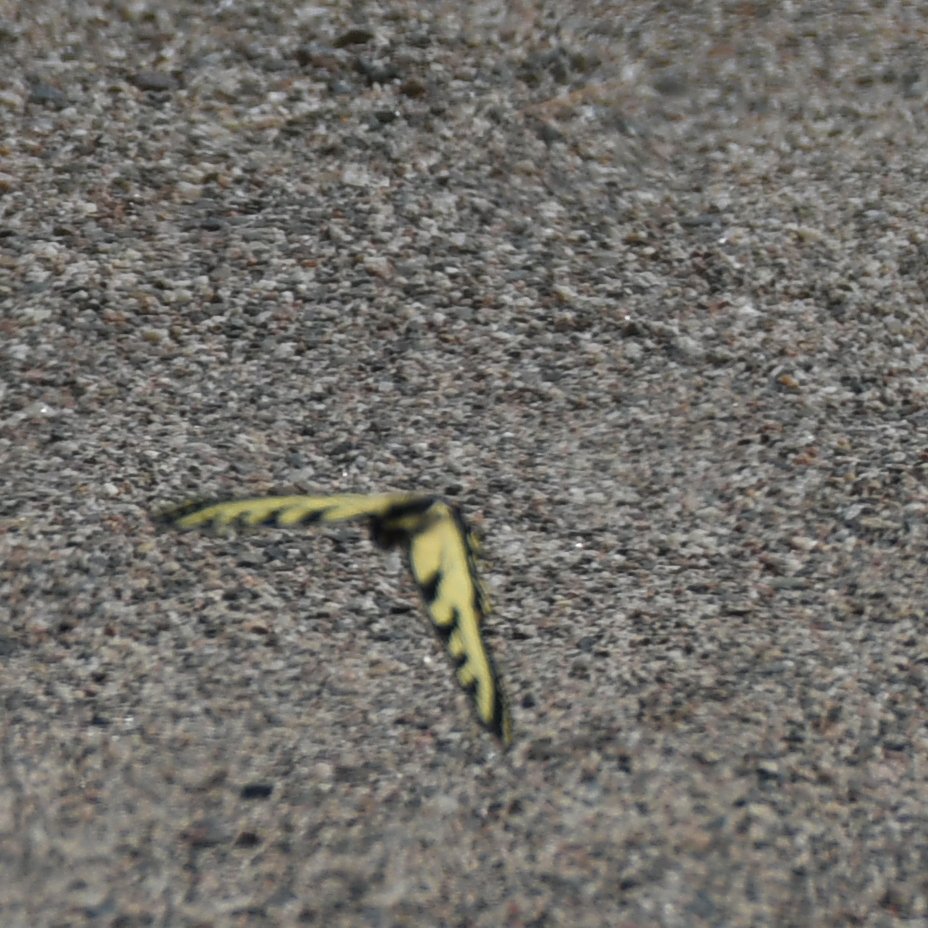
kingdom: Animalia
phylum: Arthropoda
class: Insecta
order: Lepidoptera
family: Papilionidae
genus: Pterourus
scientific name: Pterourus canadensis
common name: Canadian Tiger Swallowtail
